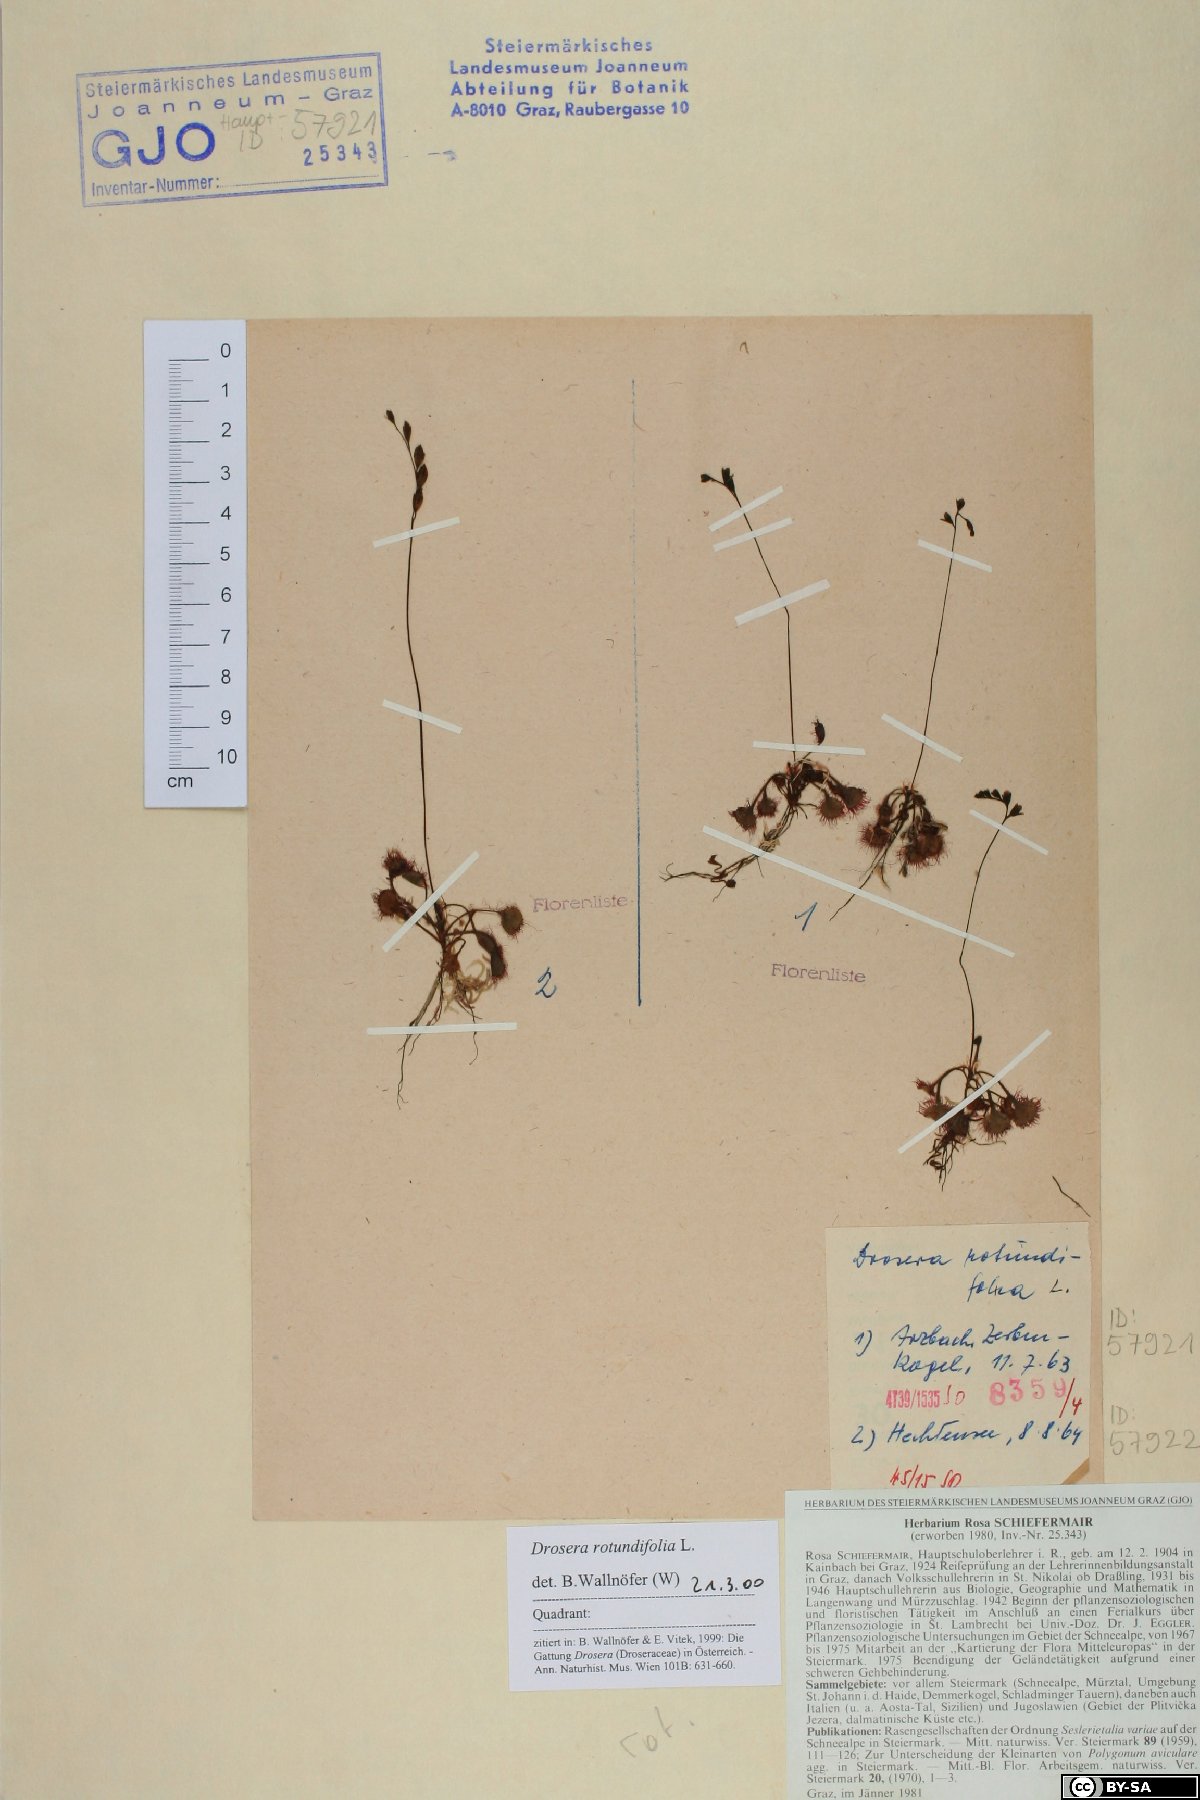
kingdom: Plantae
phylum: Tracheophyta
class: Magnoliopsida
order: Caryophyllales
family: Droseraceae
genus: Drosera
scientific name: Drosera rotundifolia
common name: Round-leaved sundew
